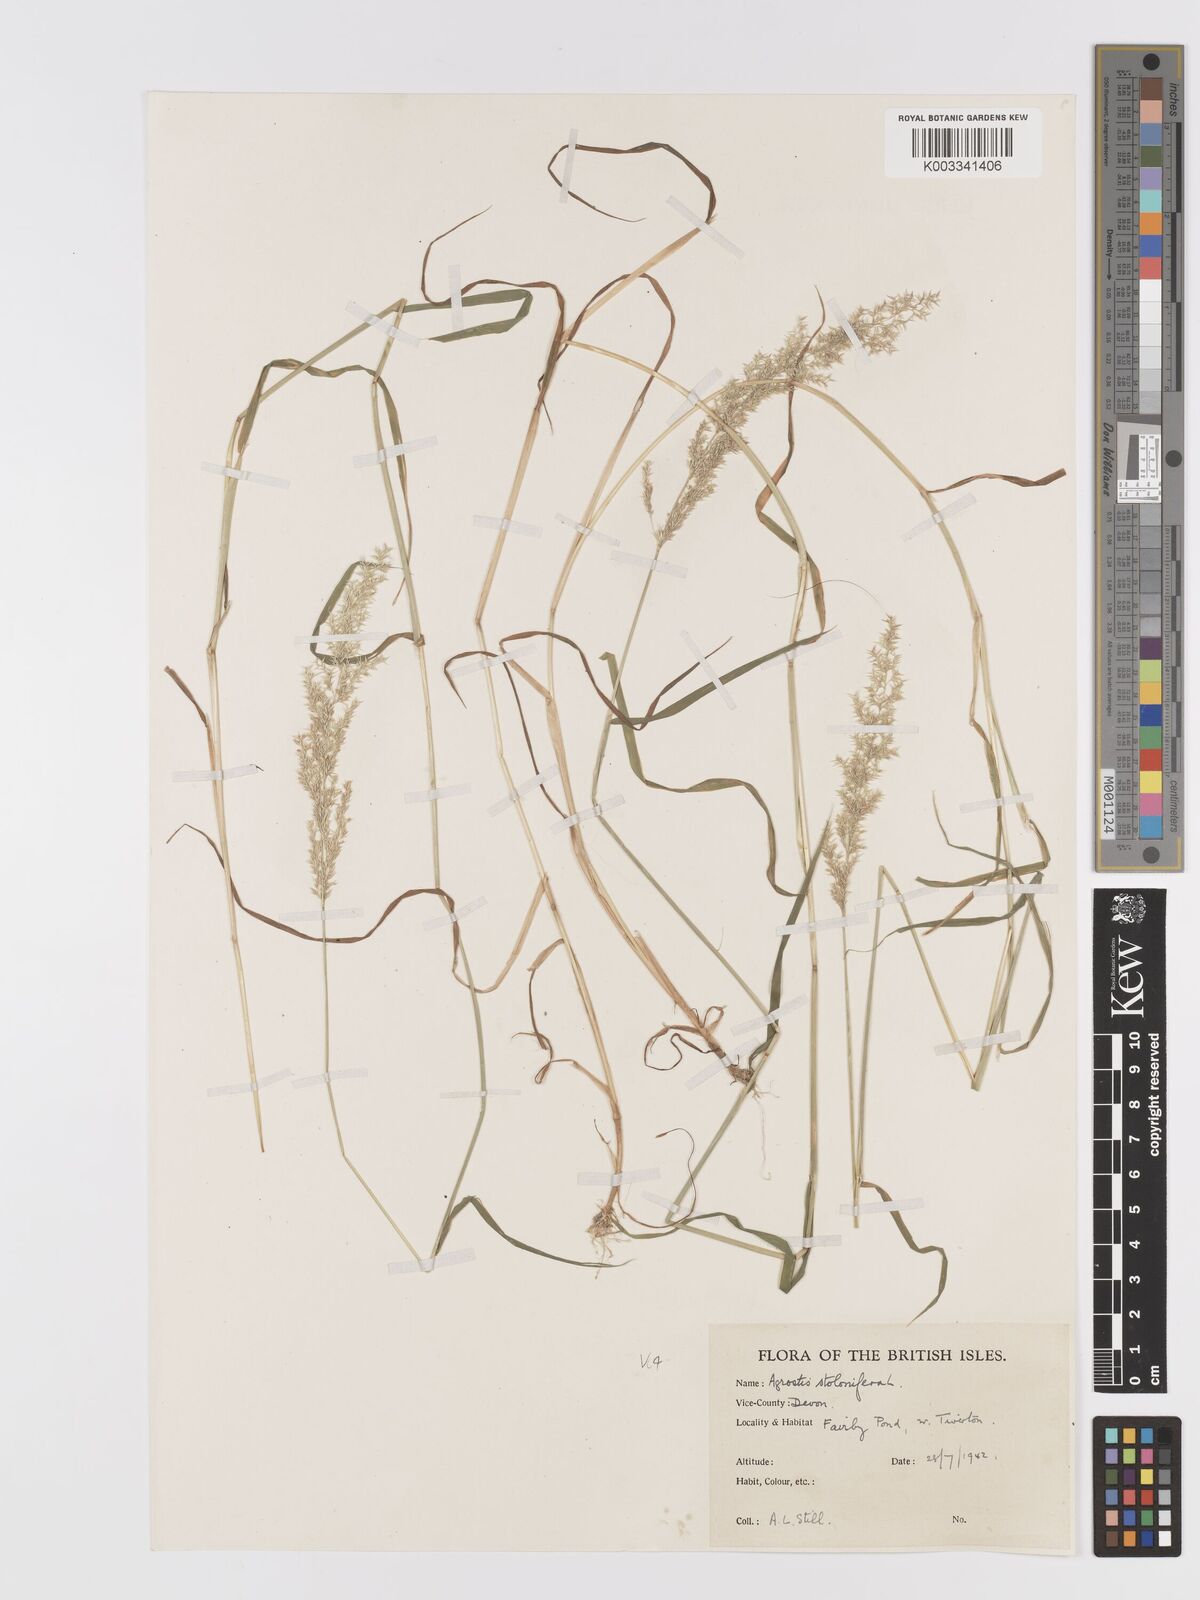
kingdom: Plantae
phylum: Tracheophyta
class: Liliopsida
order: Poales
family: Poaceae
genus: Agrostis
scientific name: Agrostis stolonifera
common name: Creeping bentgrass
